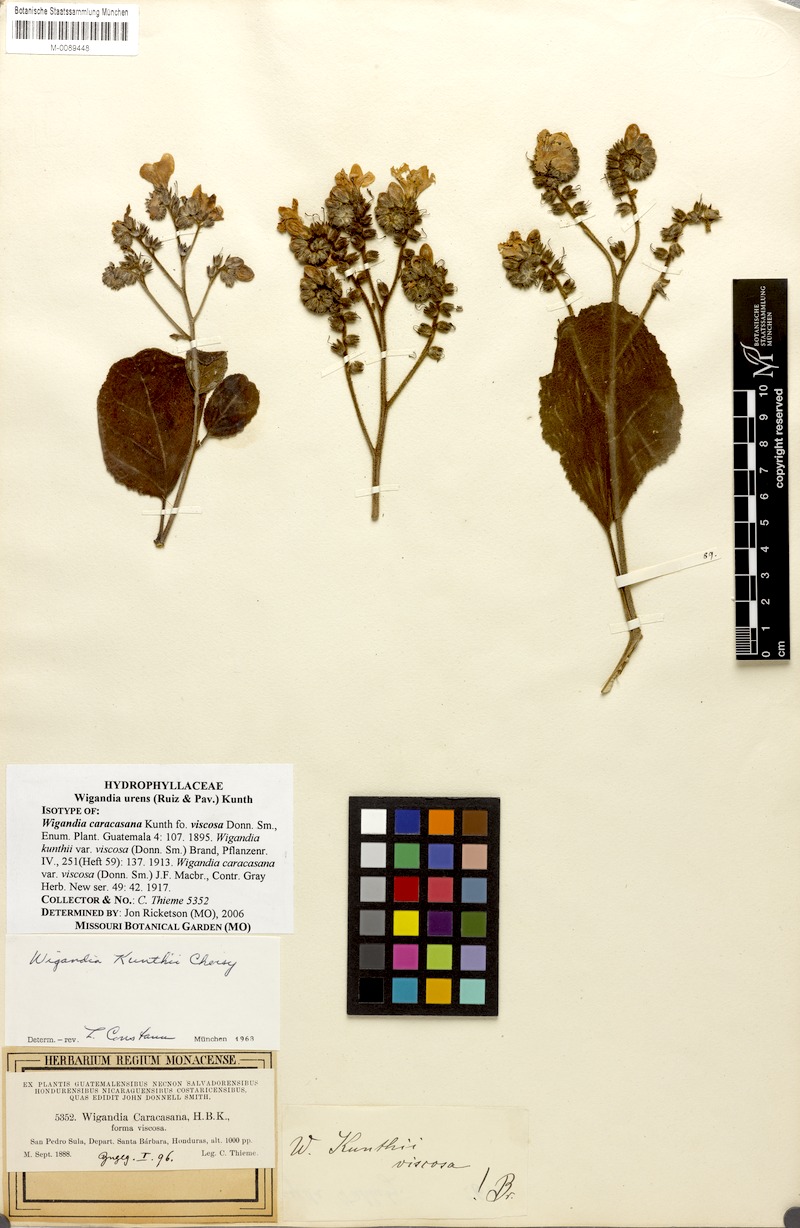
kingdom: Plantae
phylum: Tracheophyta
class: Magnoliopsida
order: Boraginales
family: Namaceae
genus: Wigandia
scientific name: Wigandia urens
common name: Caracus wigandia
